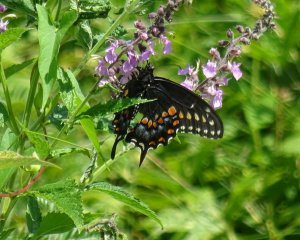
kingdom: Animalia
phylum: Arthropoda
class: Insecta
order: Lepidoptera
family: Papilionidae
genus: Papilio
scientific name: Papilio polyxenes
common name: Black Swallowtail
